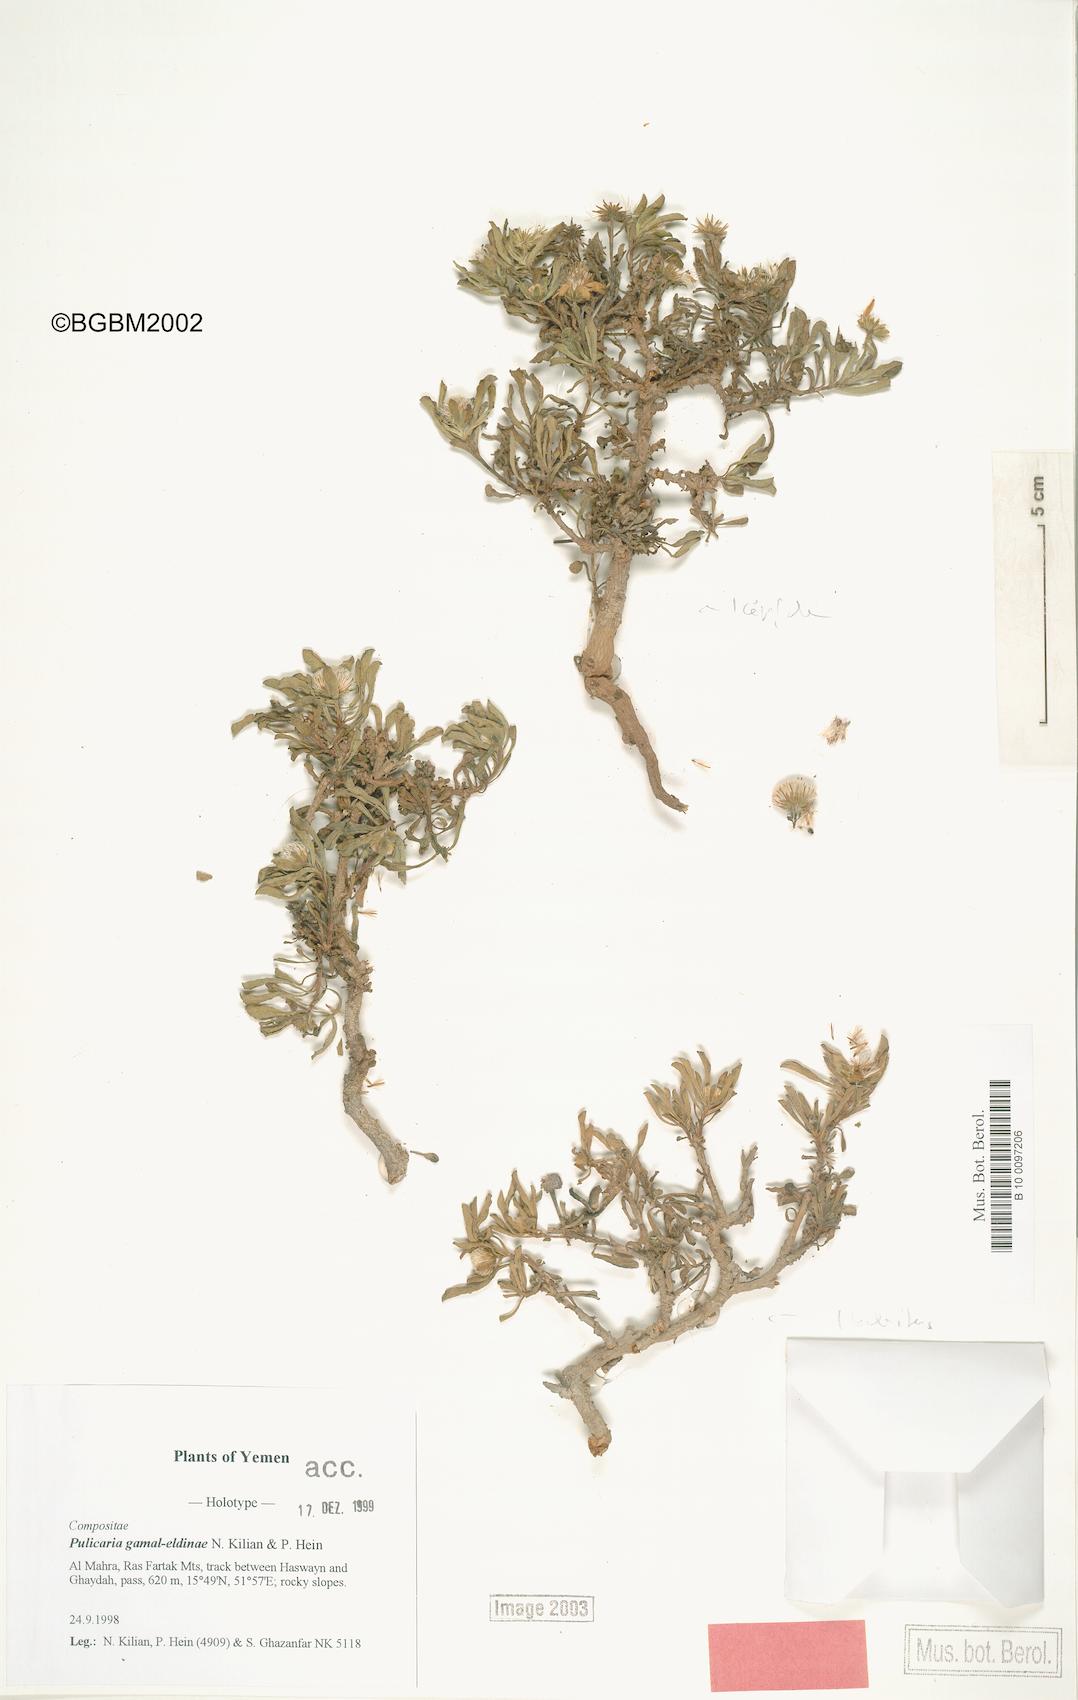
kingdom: Plantae
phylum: Tracheophyta
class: Magnoliopsida
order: Asterales
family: Asteraceae
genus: Pulicaria
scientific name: Pulicaria gamal-eldiniae
